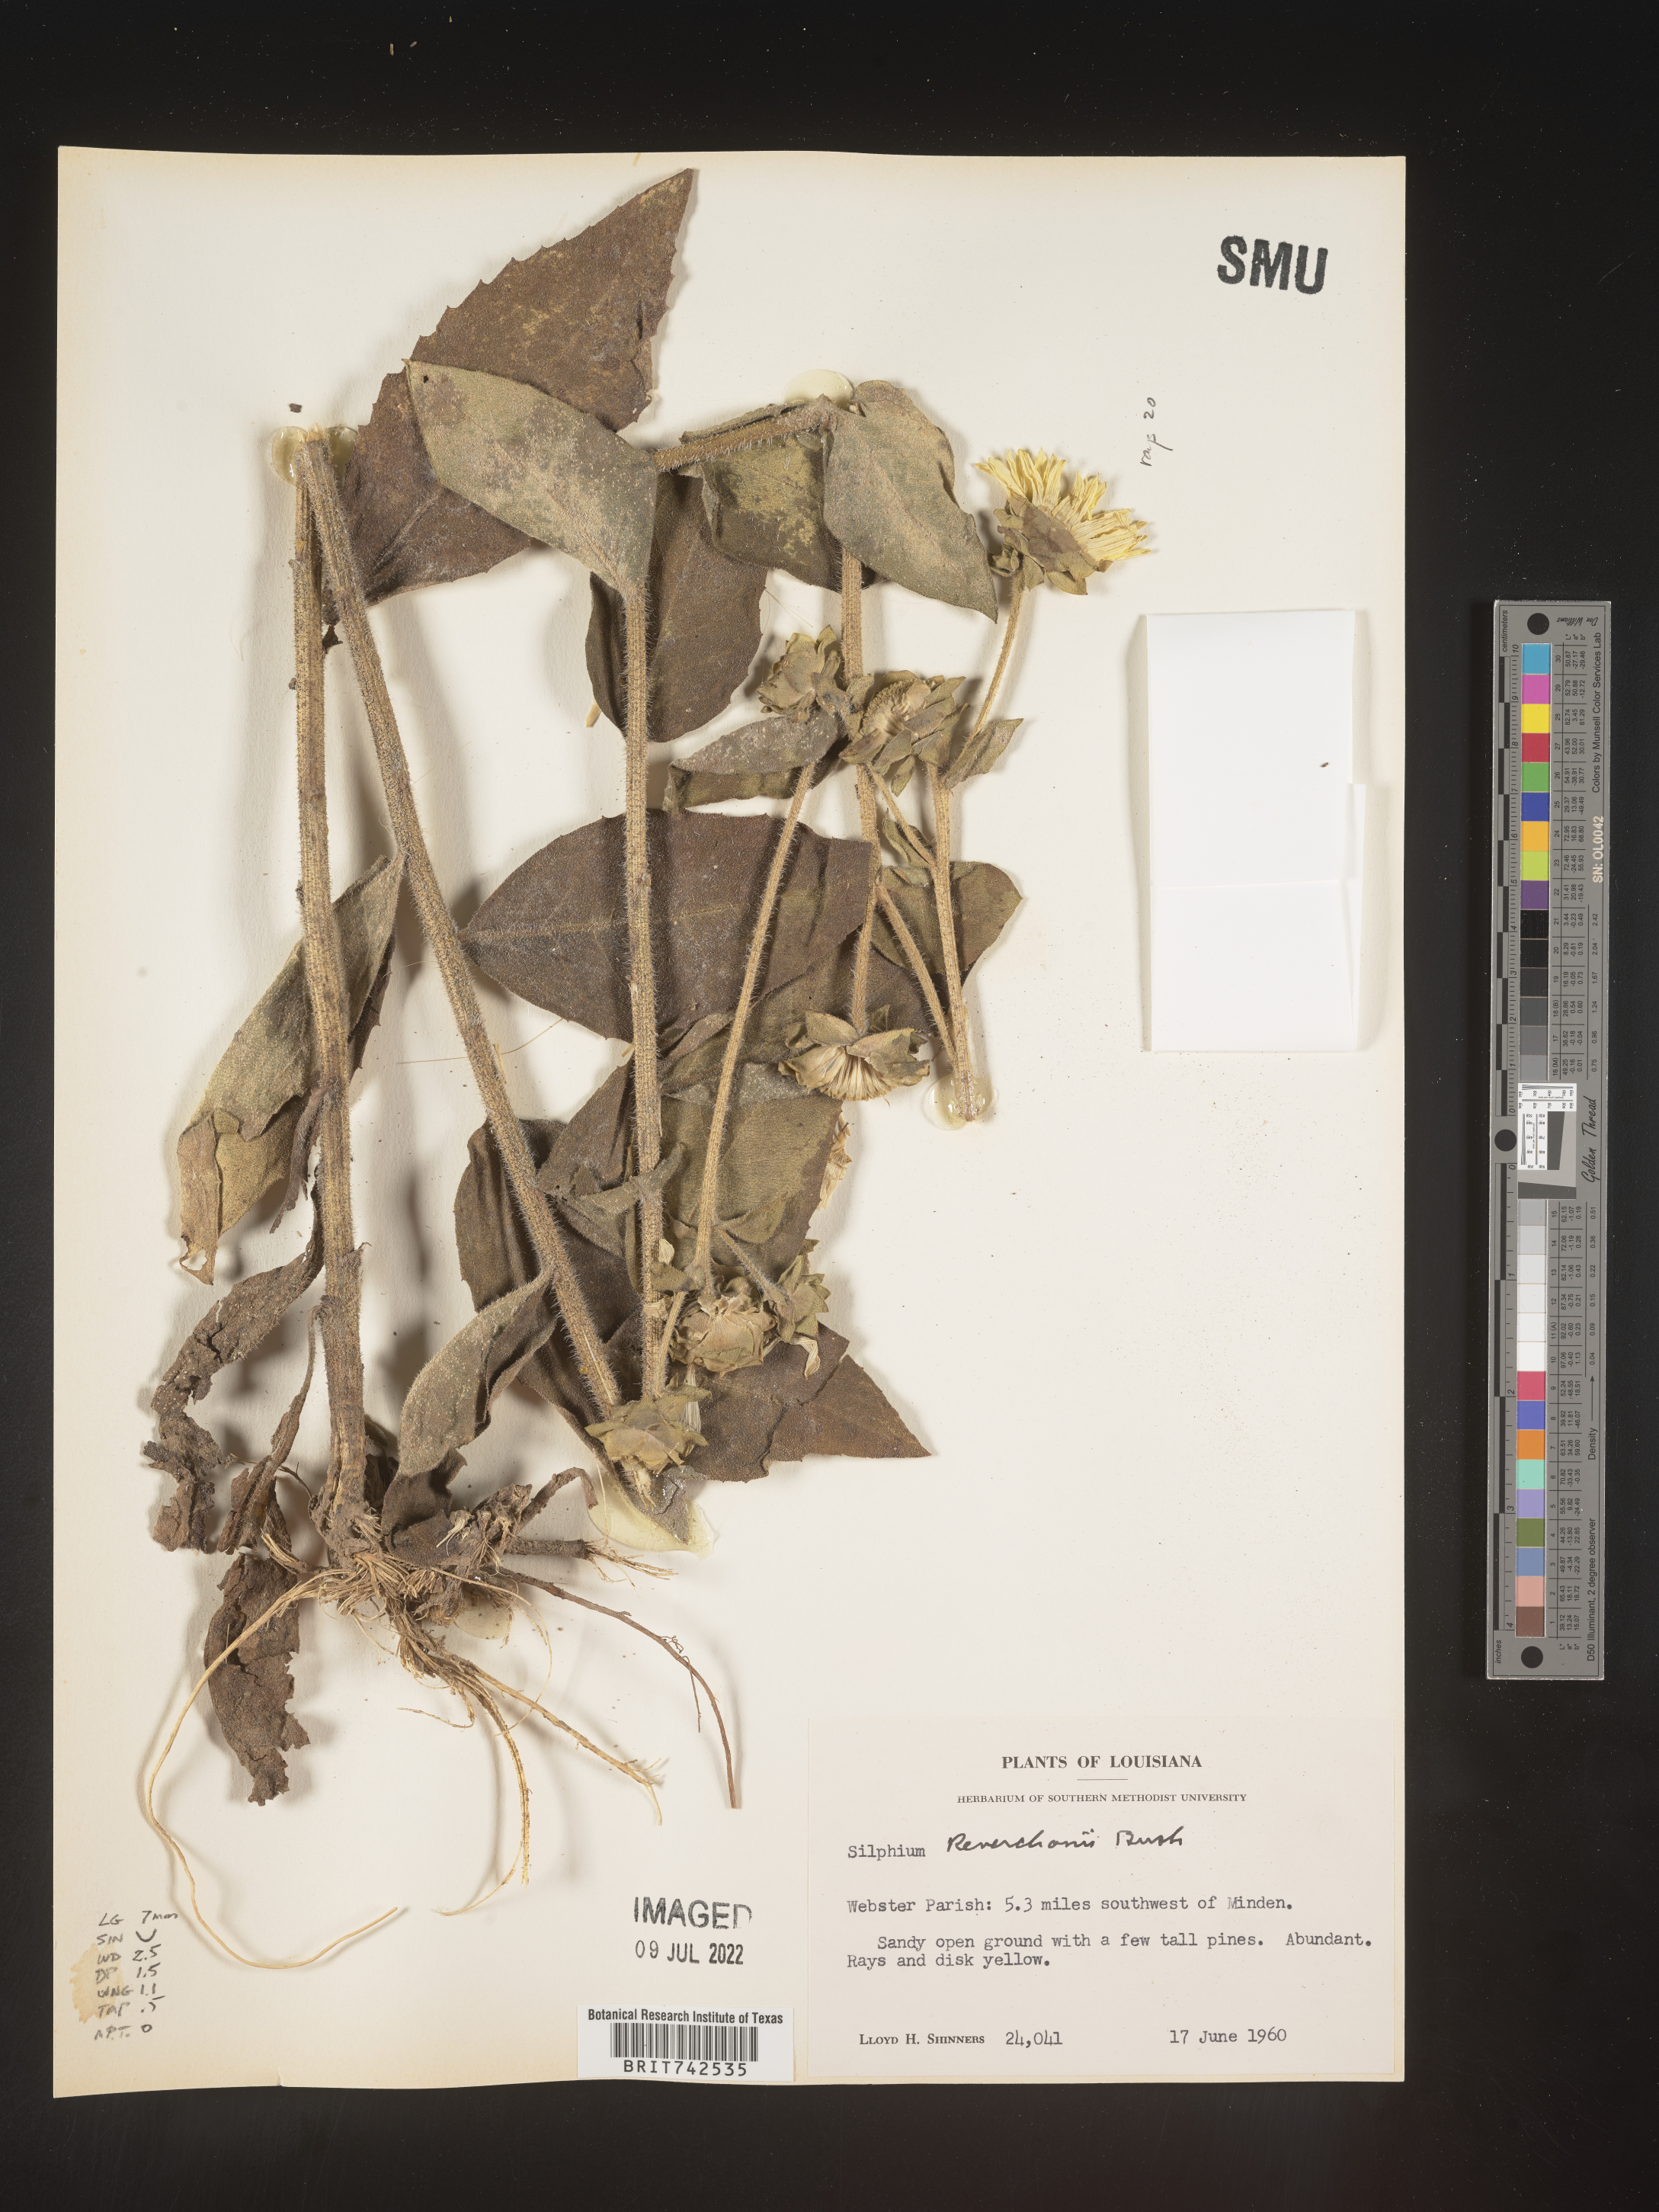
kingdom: Plantae
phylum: Tracheophyta
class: Magnoliopsida
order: Asterales
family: Asteraceae
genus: Silphium
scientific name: Silphium radula
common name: Roughleaf rosinweed
